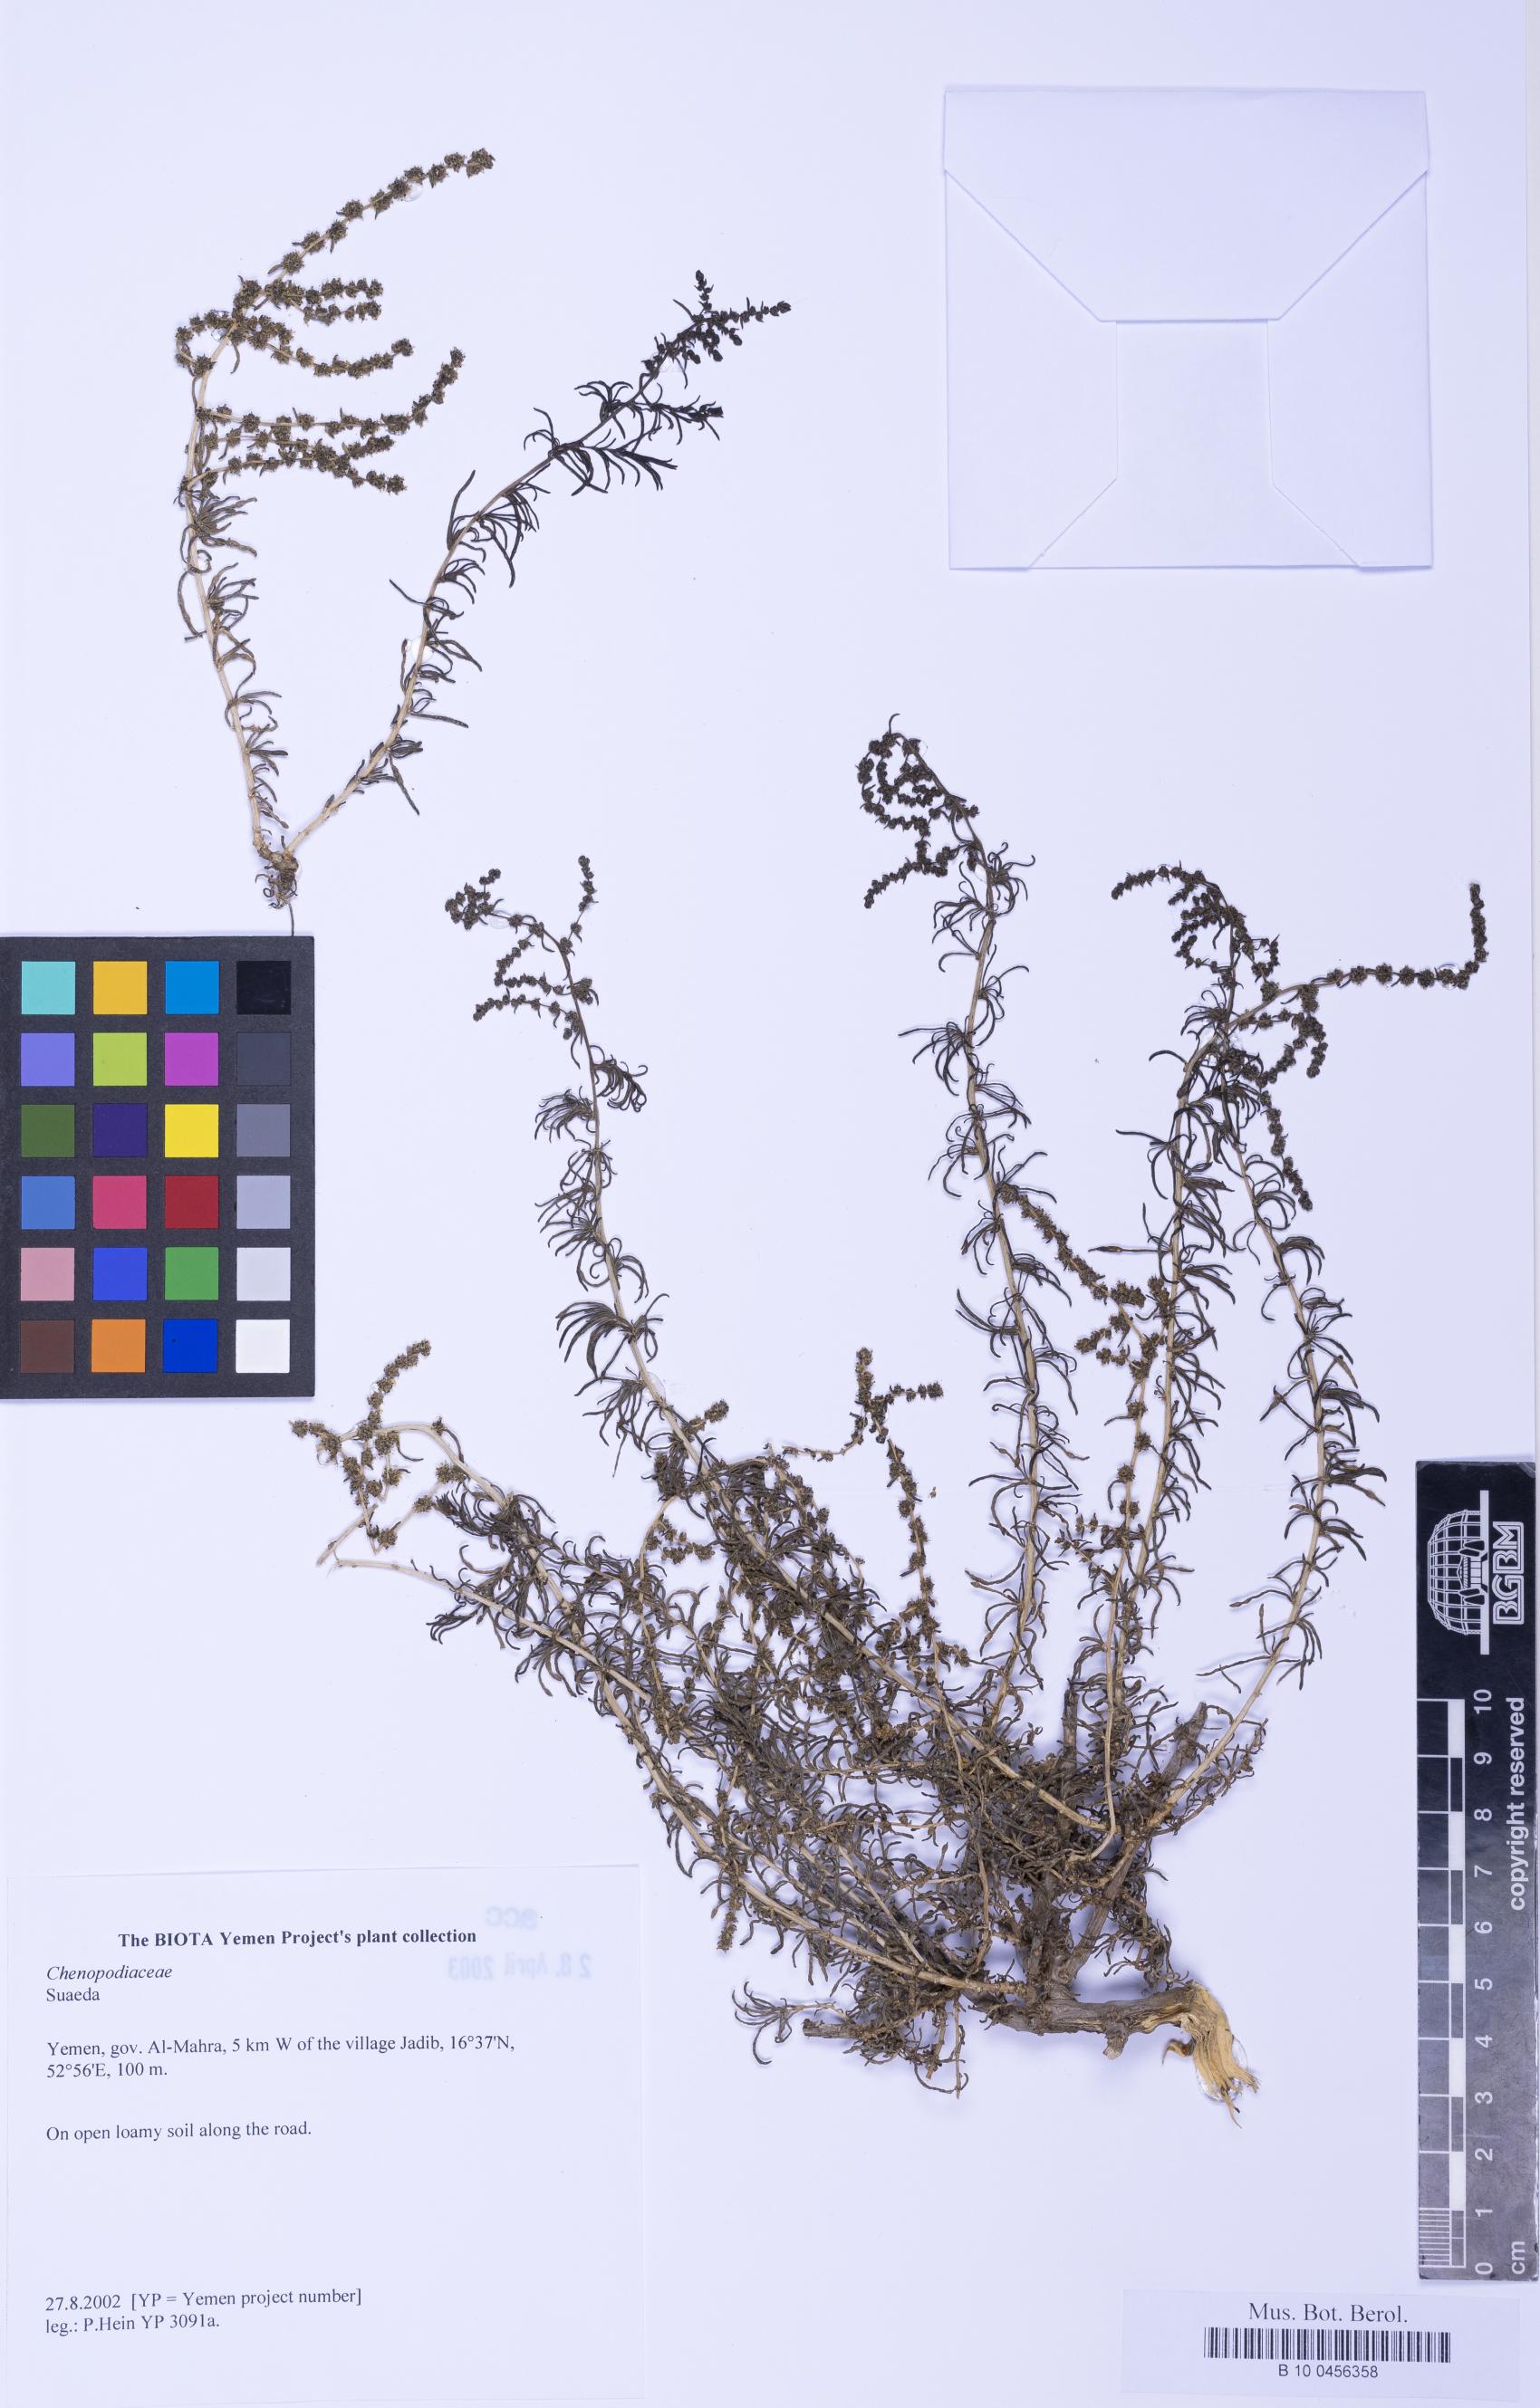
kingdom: Plantae
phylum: Tracheophyta
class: Magnoliopsida
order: Caryophyllales
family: Amaranthaceae
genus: Suaeda
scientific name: Suaeda
